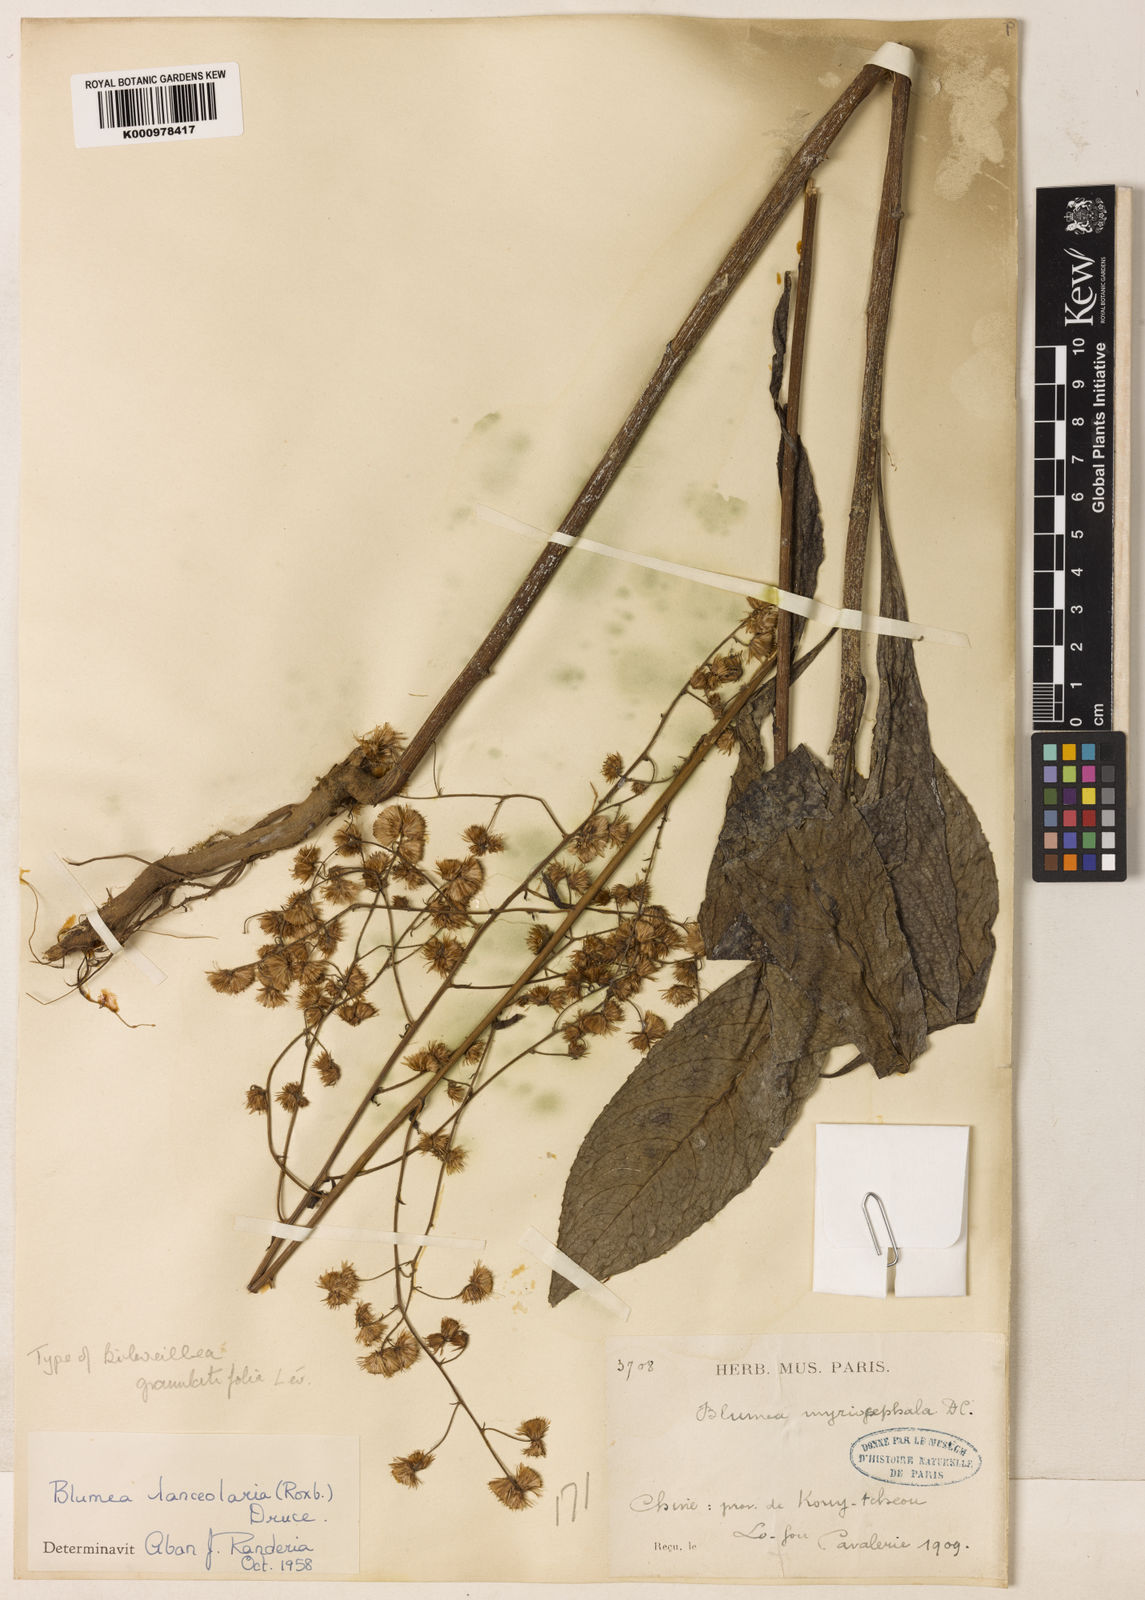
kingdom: Plantae
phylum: Tracheophyta
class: Magnoliopsida
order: Asterales
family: Asteraceae
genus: Blumea
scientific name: Blumea lanceolaria
